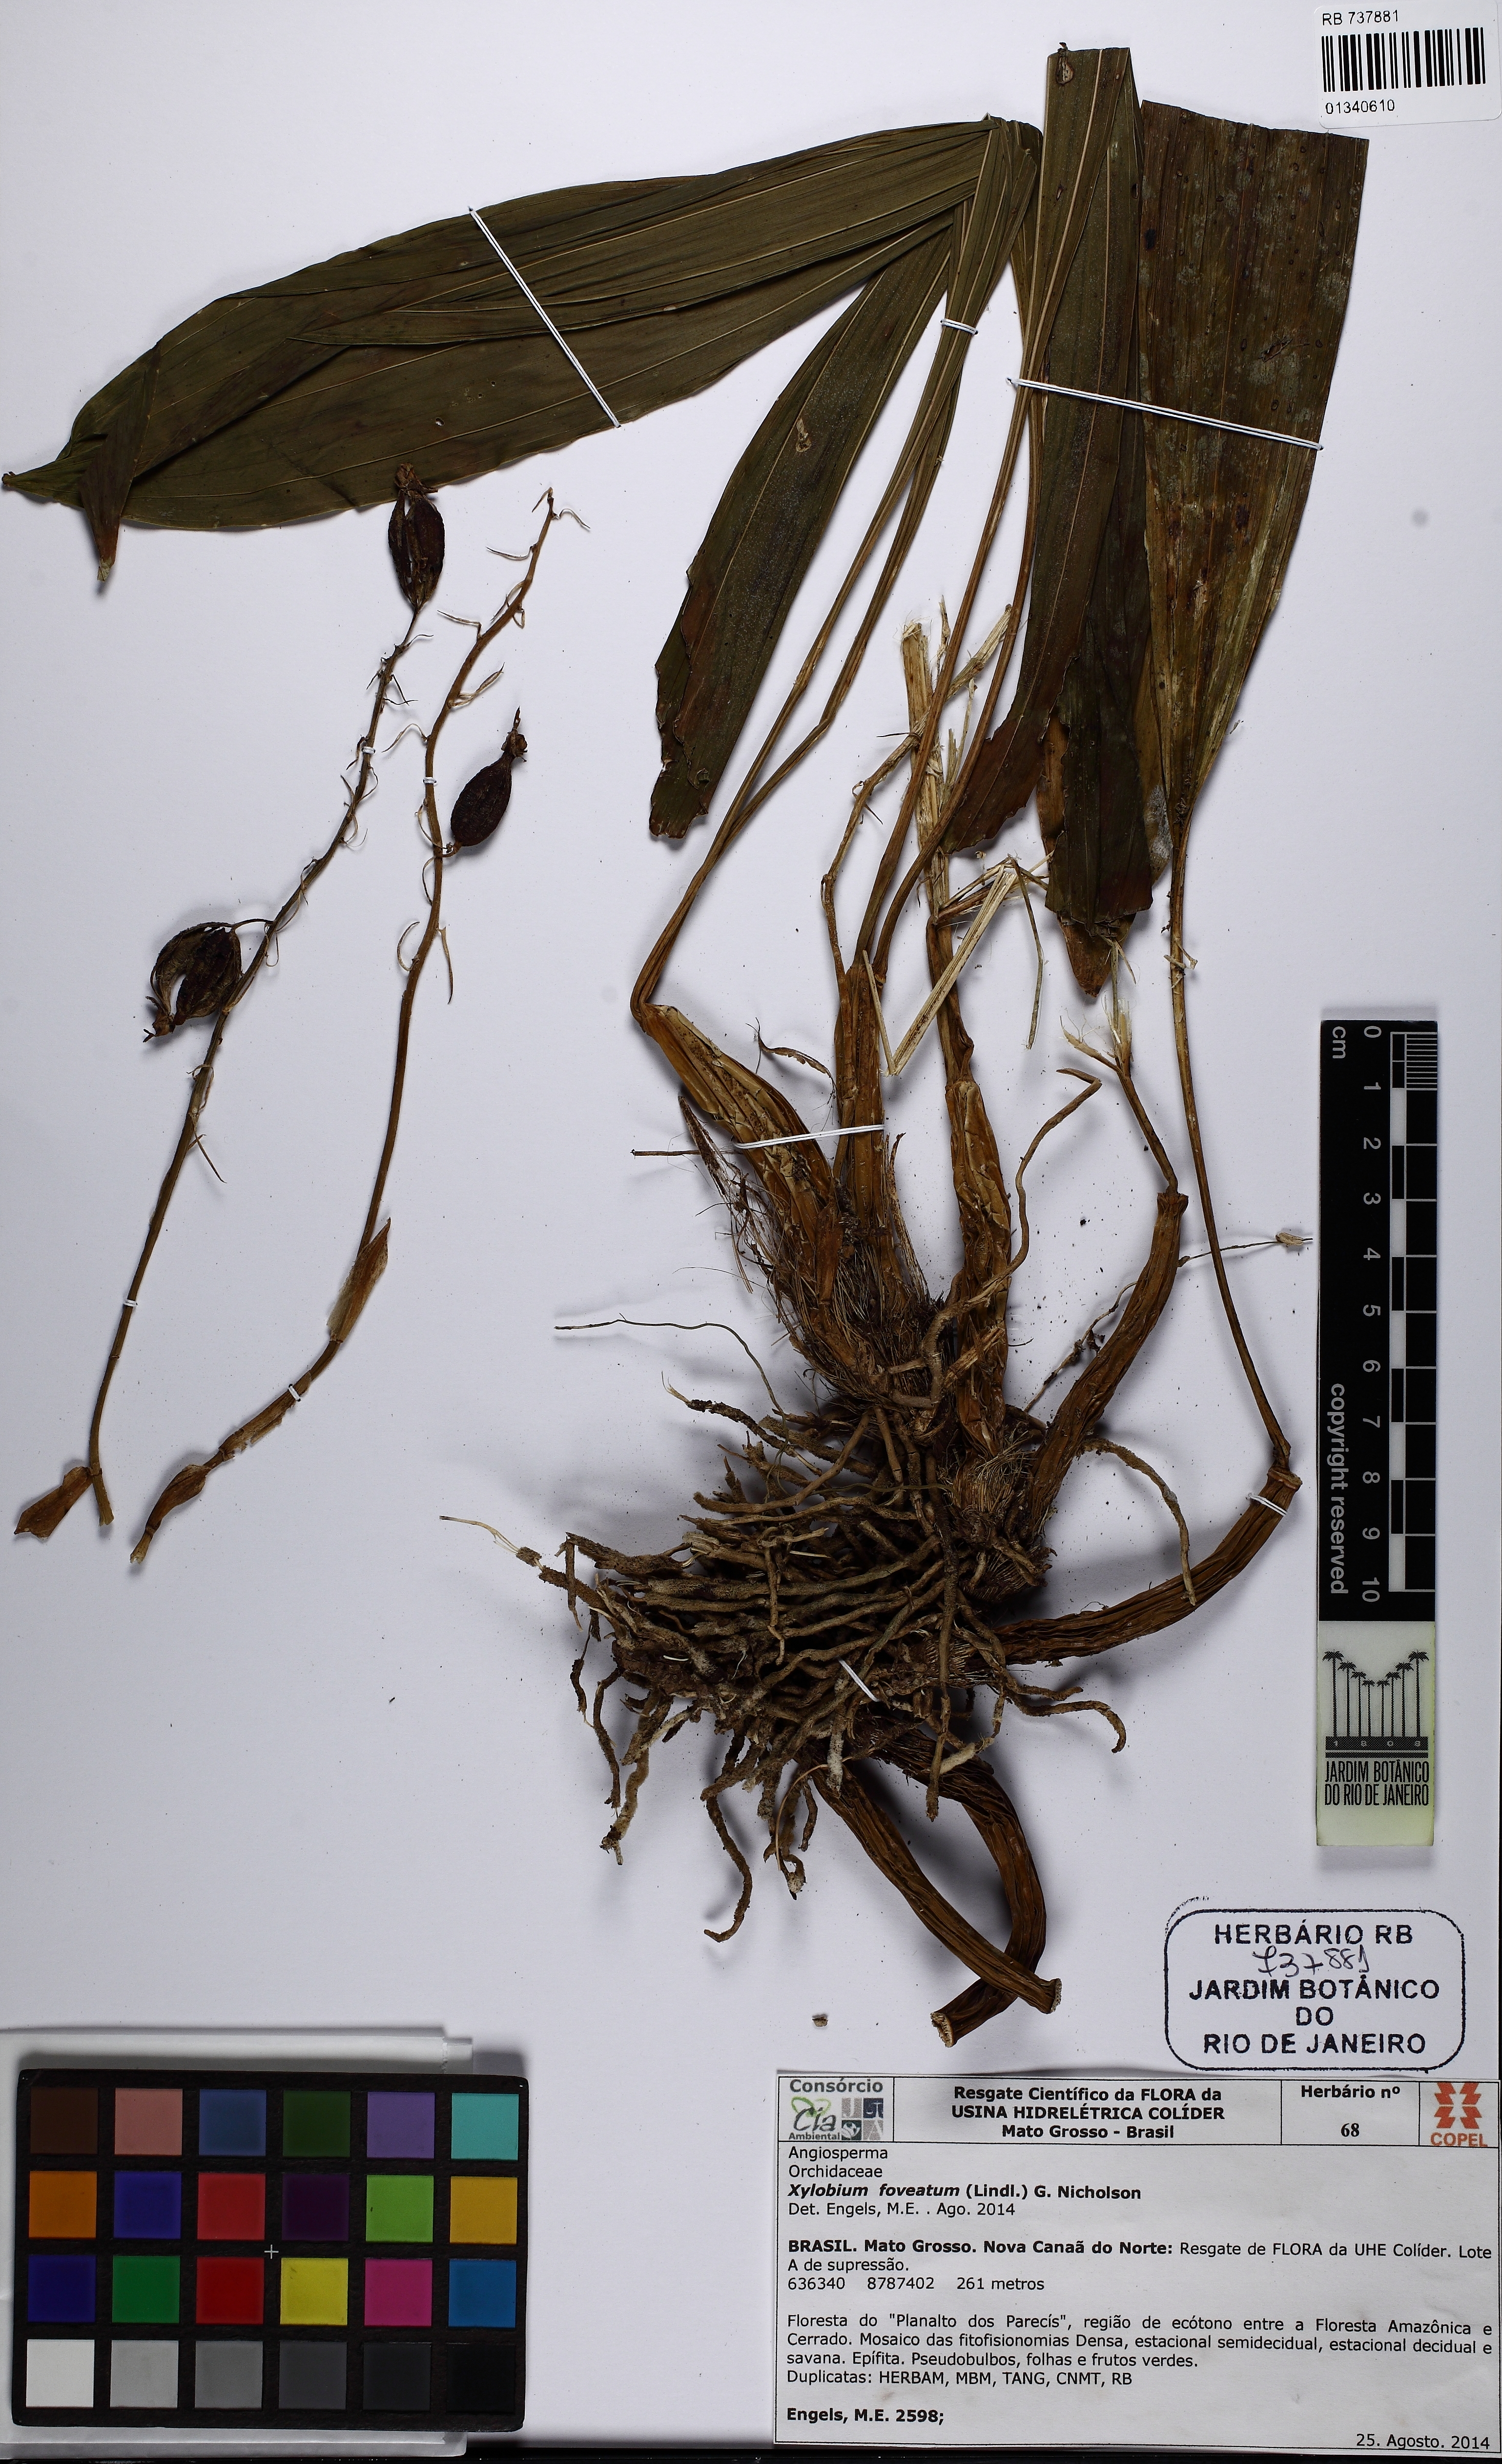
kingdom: Plantae
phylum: Tracheophyta
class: Liliopsida
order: Asparagales
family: Orchidaceae
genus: Xylobium
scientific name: Xylobium foveatum
